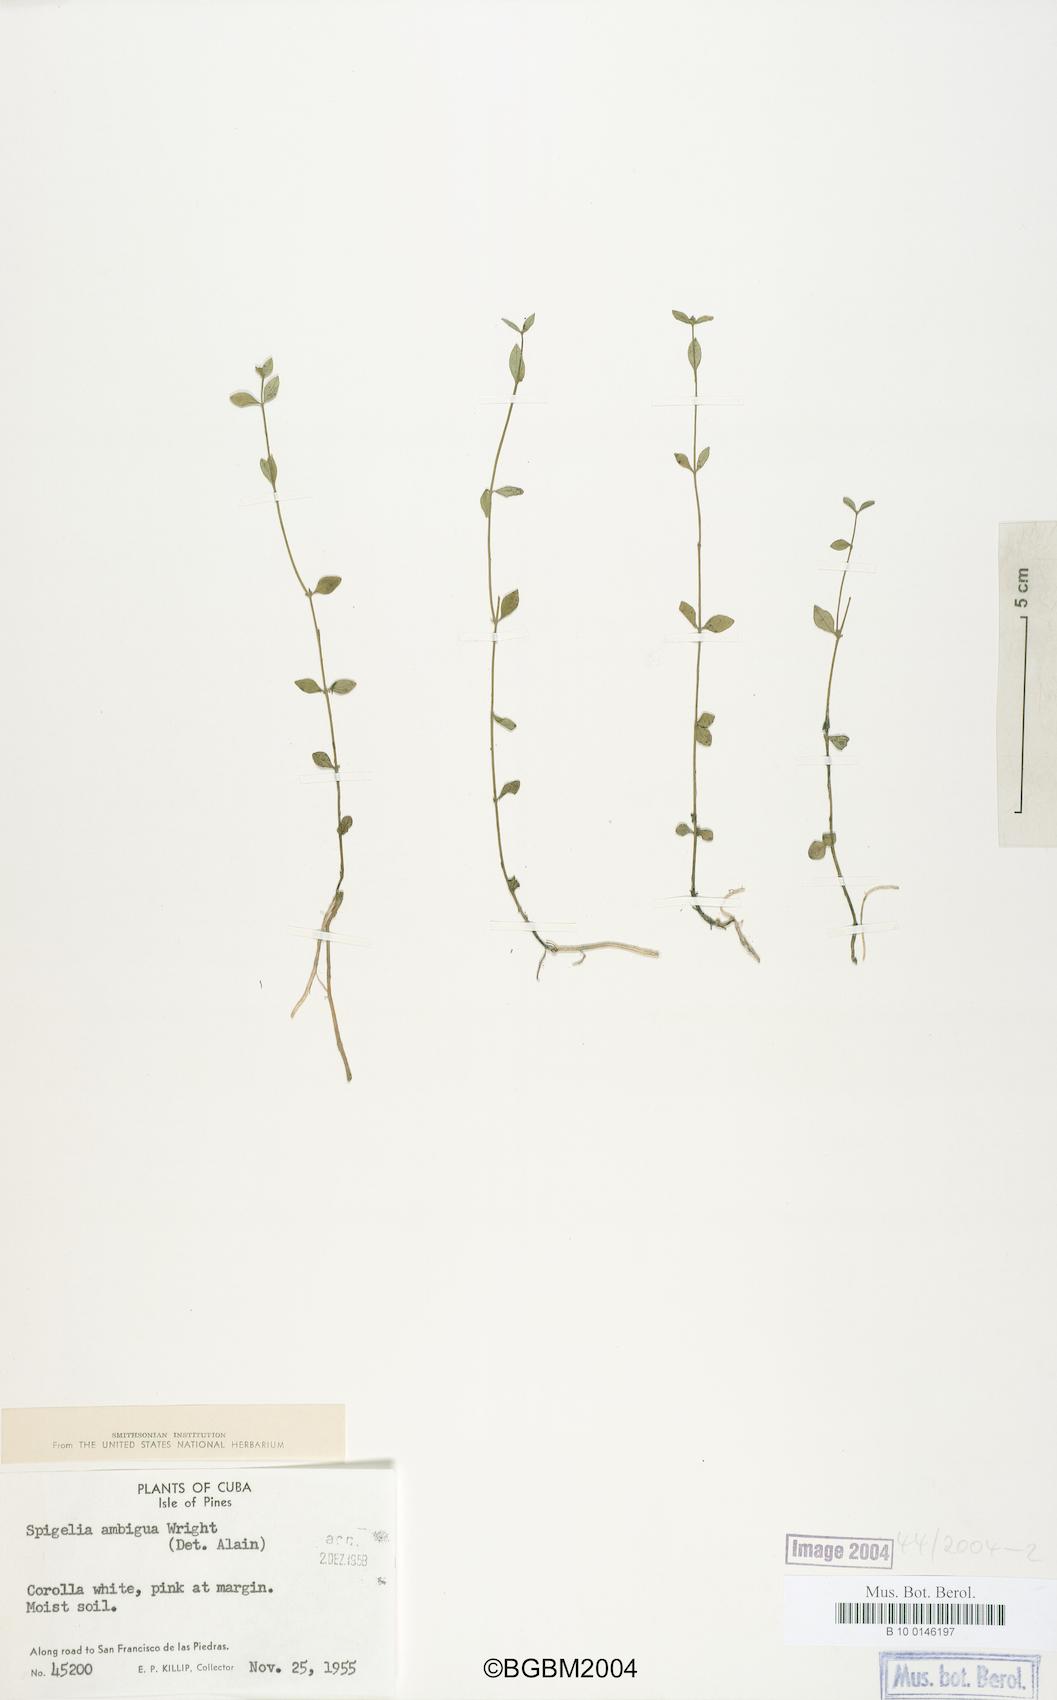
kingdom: Plantae
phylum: Tracheophyta
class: Magnoliopsida
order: Gentianales
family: Loganiaceae
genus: Spigelia
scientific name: Spigelia guianensis
